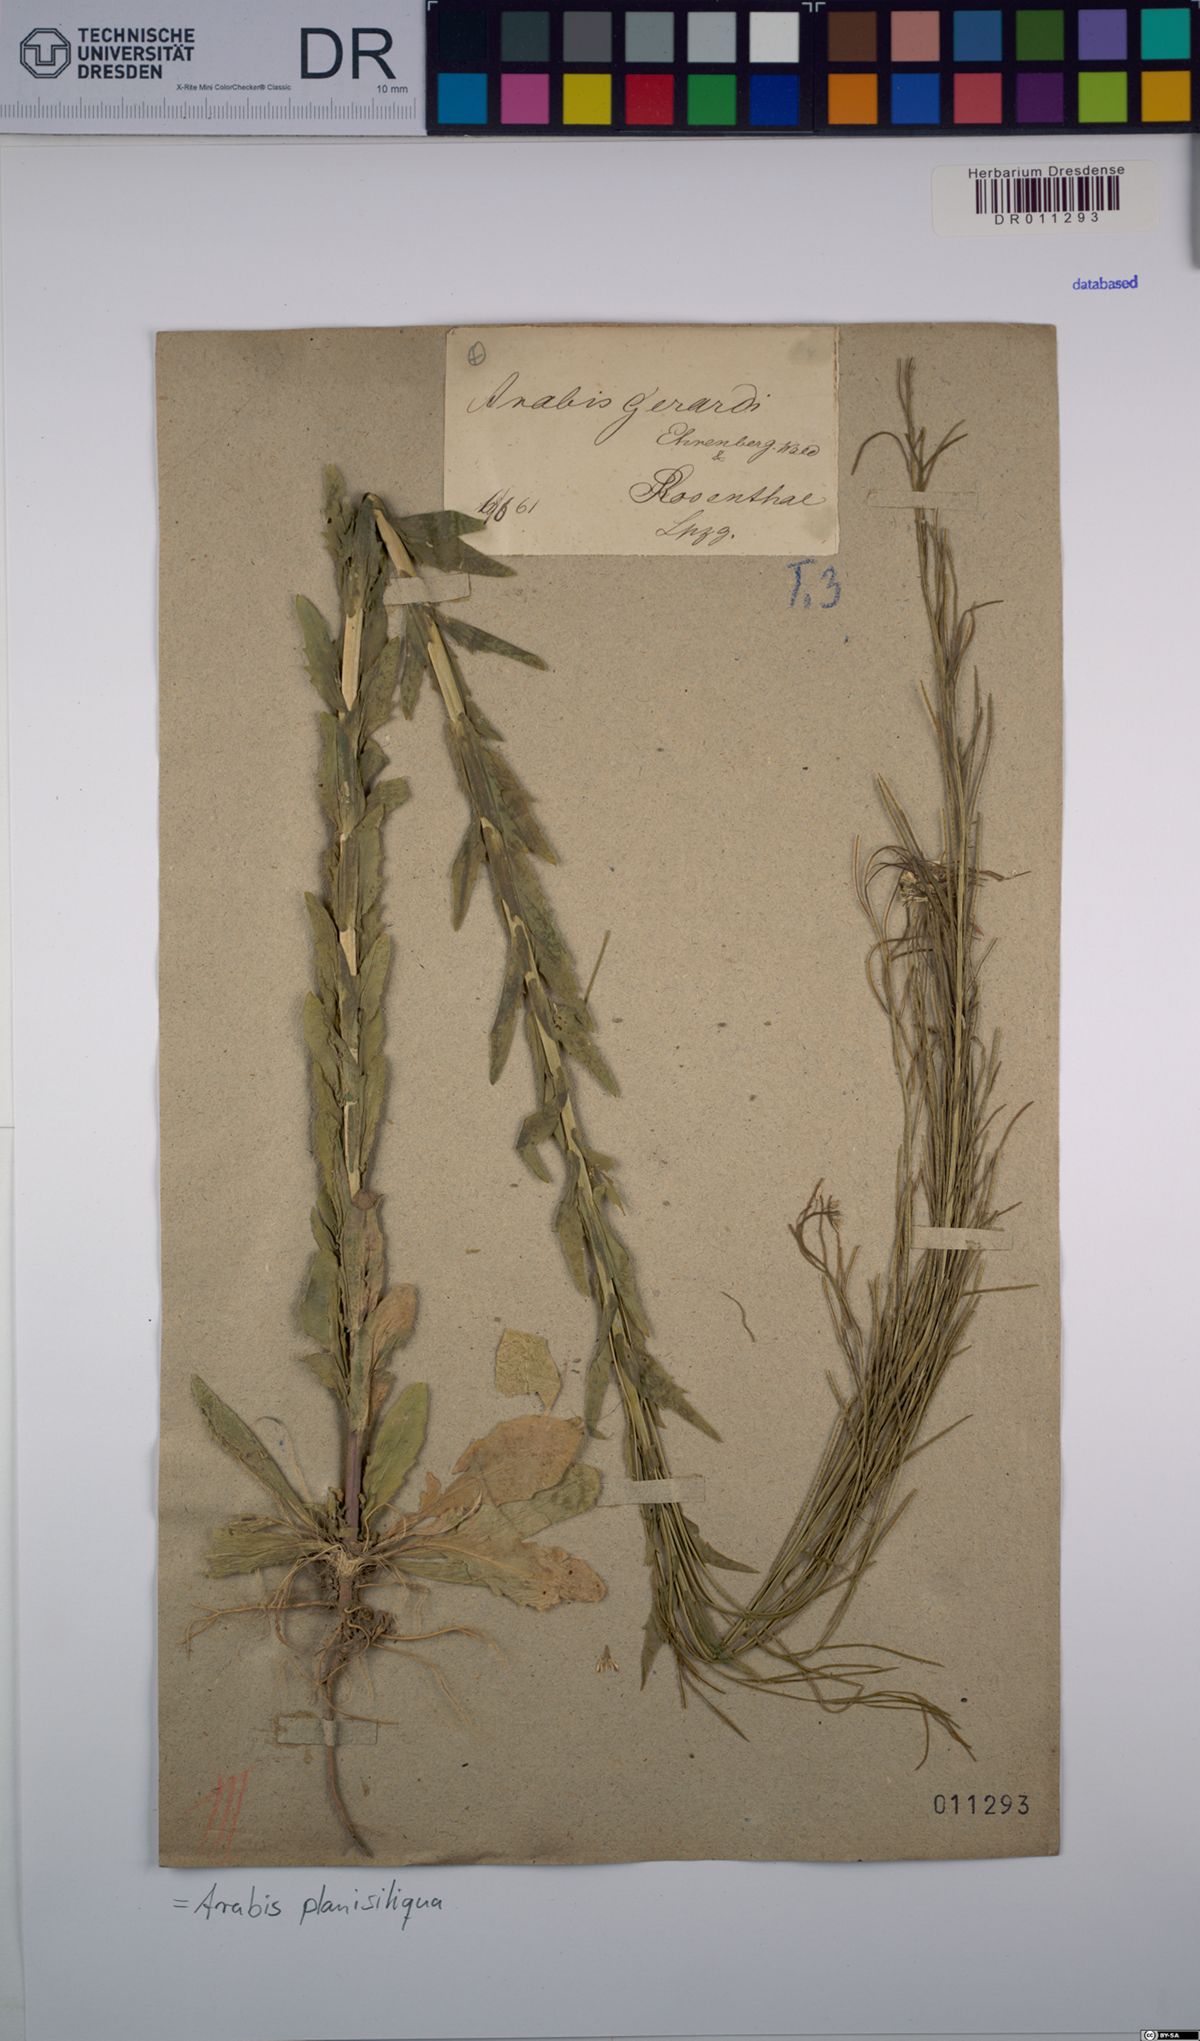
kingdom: Plantae
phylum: Tracheophyta
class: Magnoliopsida
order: Brassicales
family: Brassicaceae
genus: Arabis
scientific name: Arabis planisiliqua
